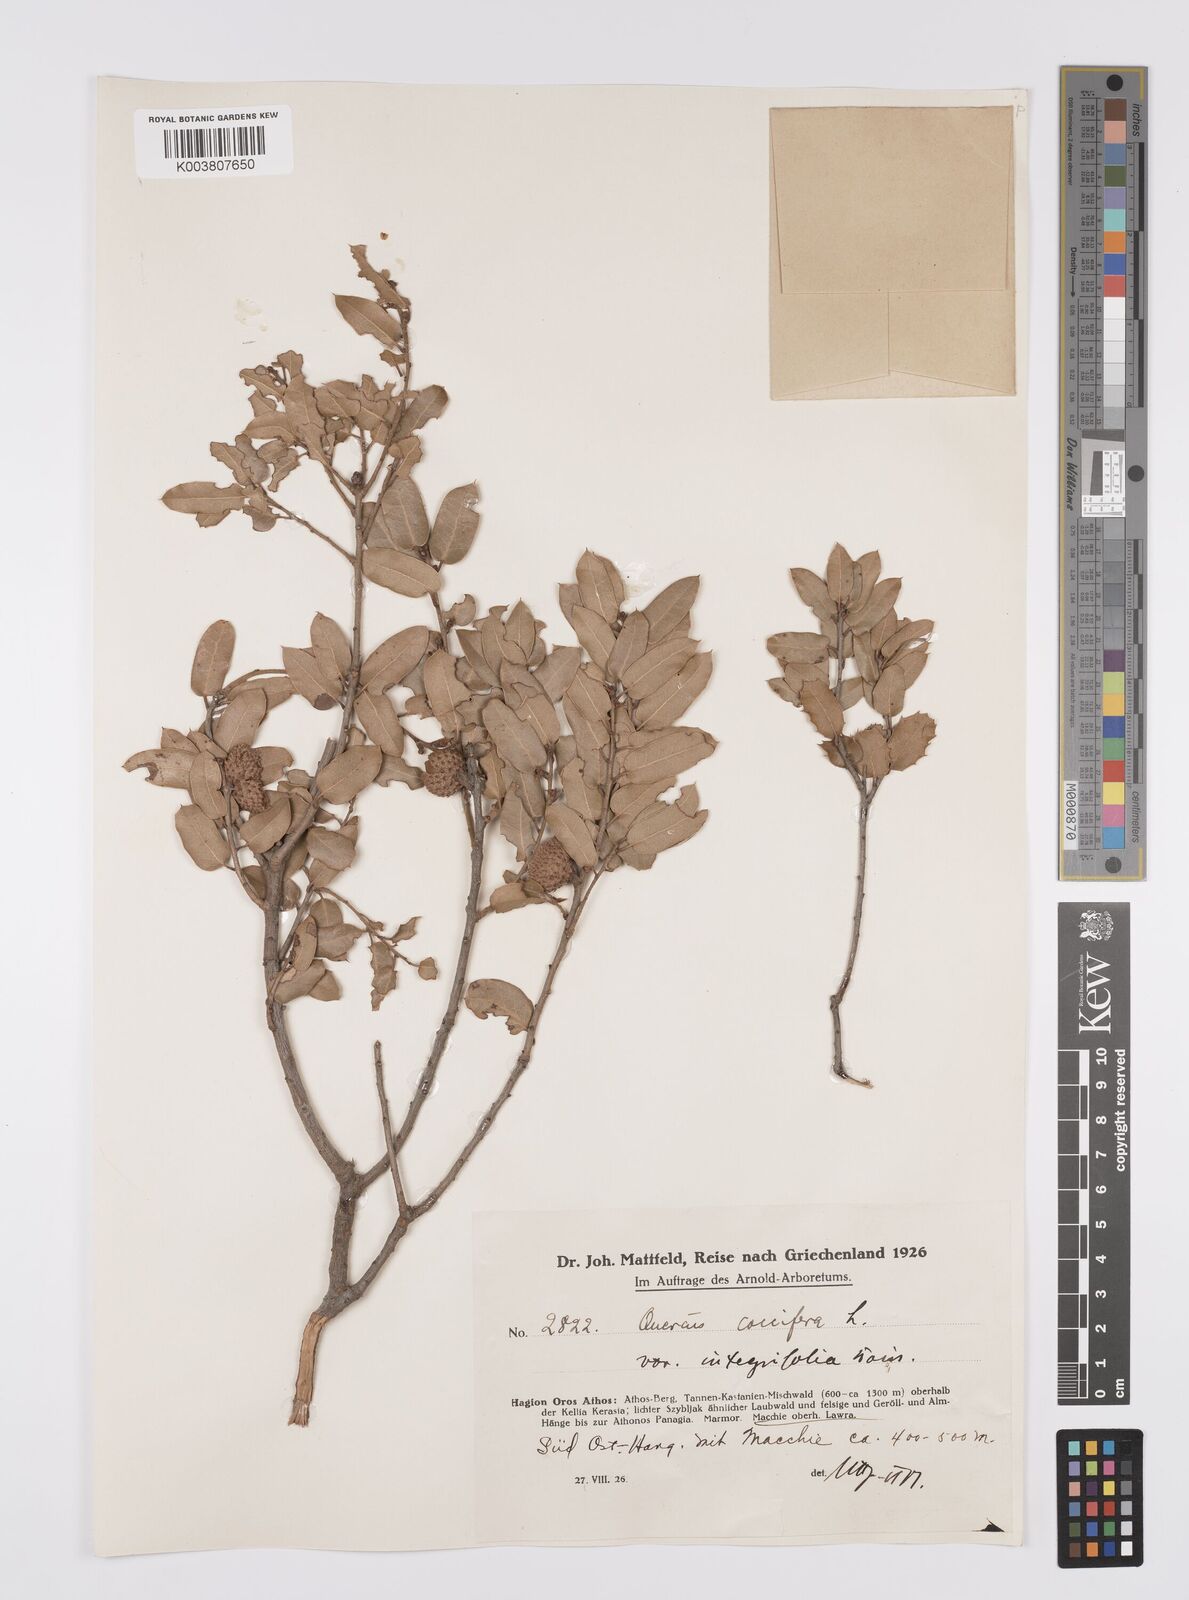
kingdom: Plantae
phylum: Tracheophyta
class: Magnoliopsida
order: Fagales
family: Fagaceae
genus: Quercus
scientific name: Quercus coccifera
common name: Kermes oak
